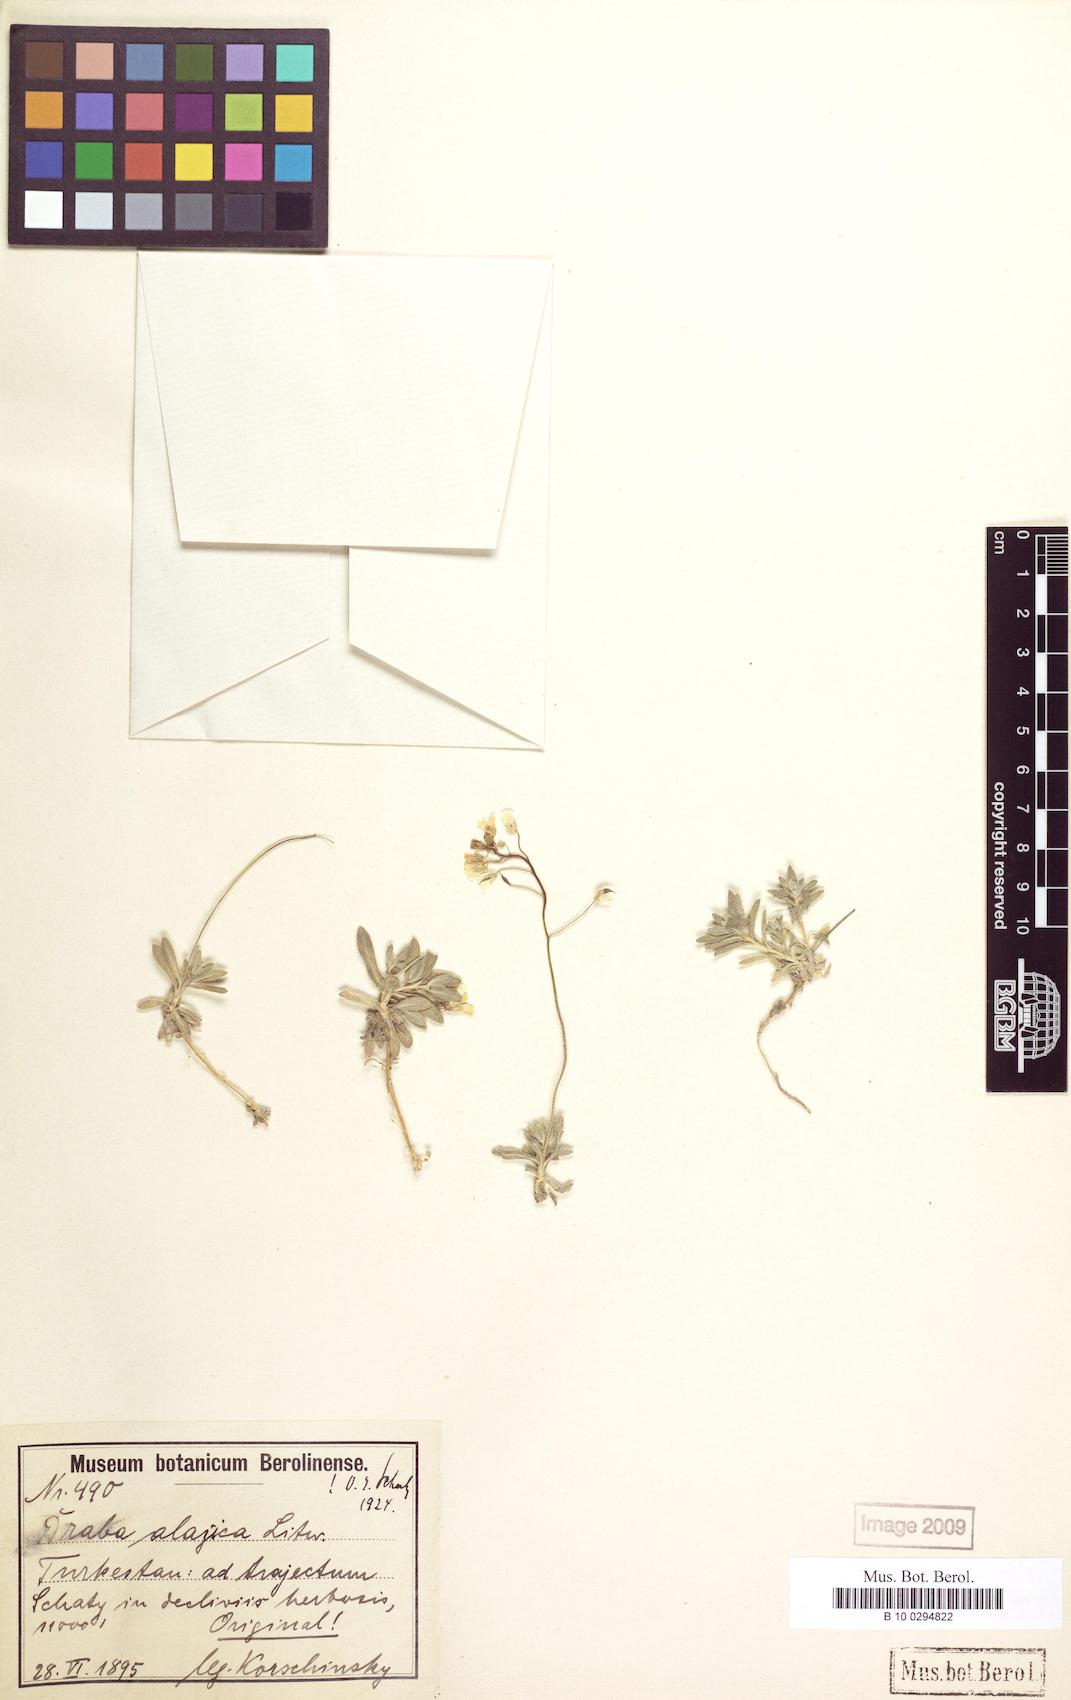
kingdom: Plantae
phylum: Tracheophyta
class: Magnoliopsida
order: Brassicales
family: Brassicaceae
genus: Draba
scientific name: Draba alajica
